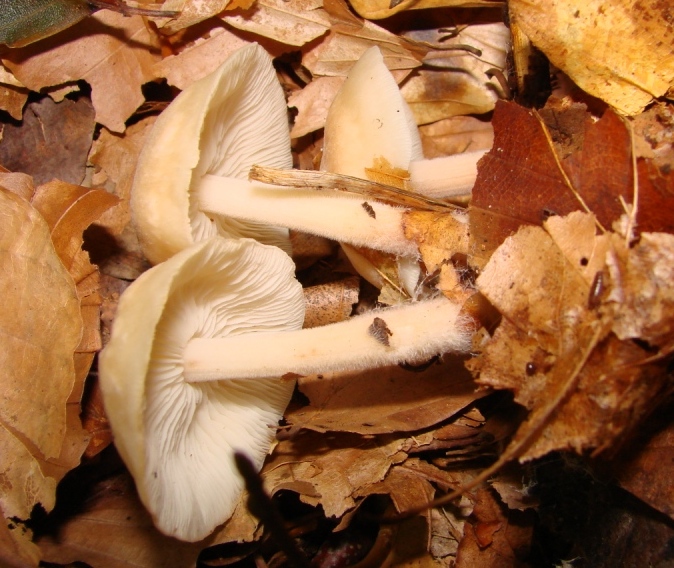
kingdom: Fungi
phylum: Basidiomycota
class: Agaricomycetes
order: Agaricales
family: Omphalotaceae
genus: Gymnopus
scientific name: Gymnopus hariolorum
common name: hvidkåls-fladhat
